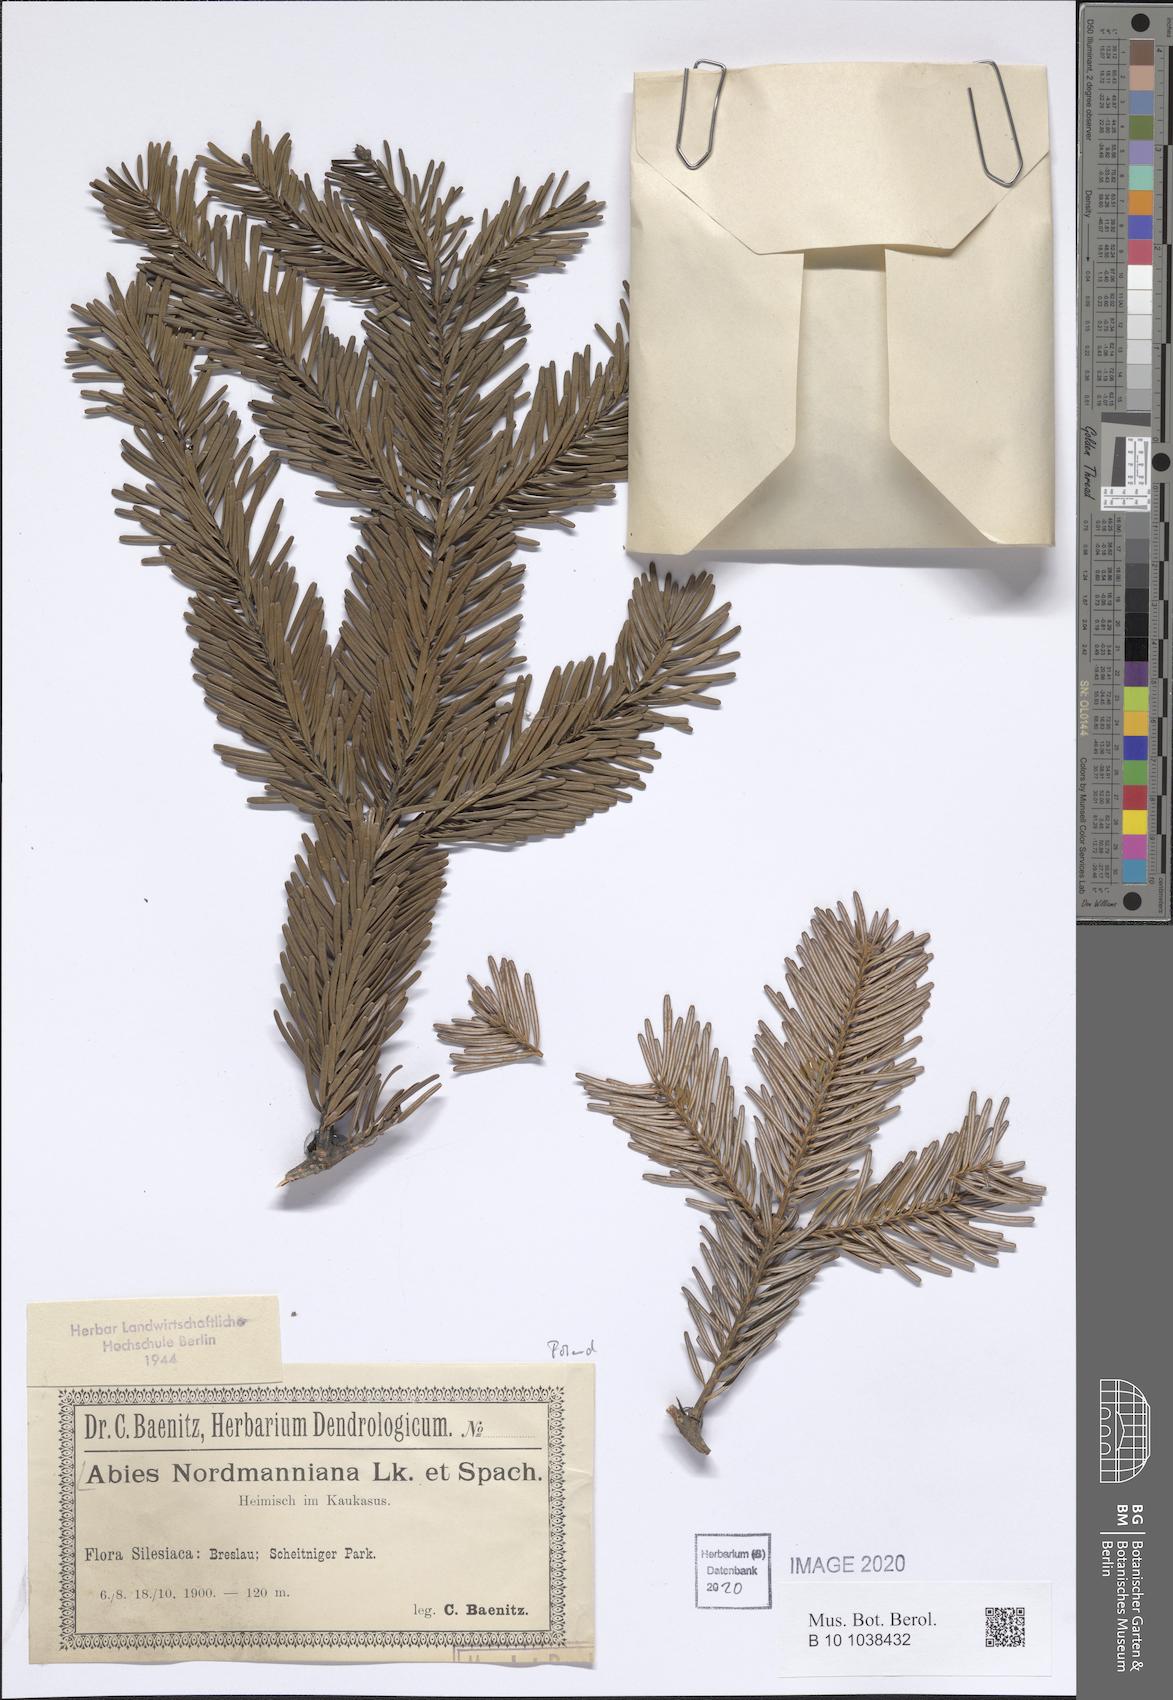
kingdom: Plantae
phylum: Tracheophyta
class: Pinopsida
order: Pinales
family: Pinaceae
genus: Abies
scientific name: Abies nordmanniana
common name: Caucasian fir
